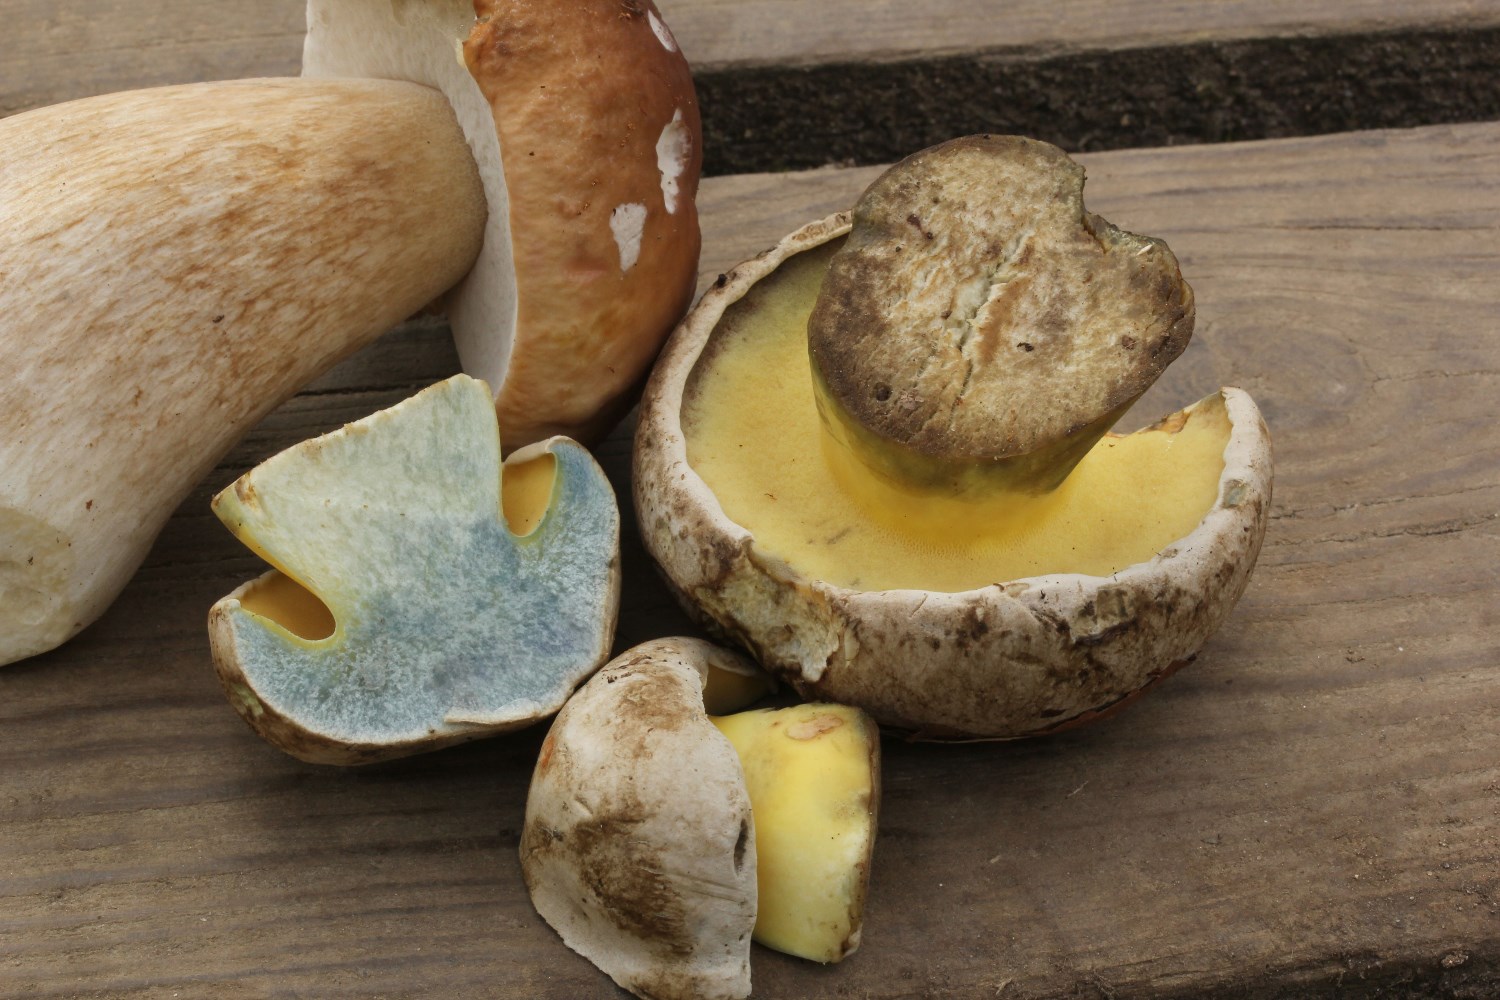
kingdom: Fungi
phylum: Basidiomycota
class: Agaricomycetes
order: Boletales
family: Boletaceae
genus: Caloboletus
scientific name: Caloboletus radicans
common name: rod-rørhat
